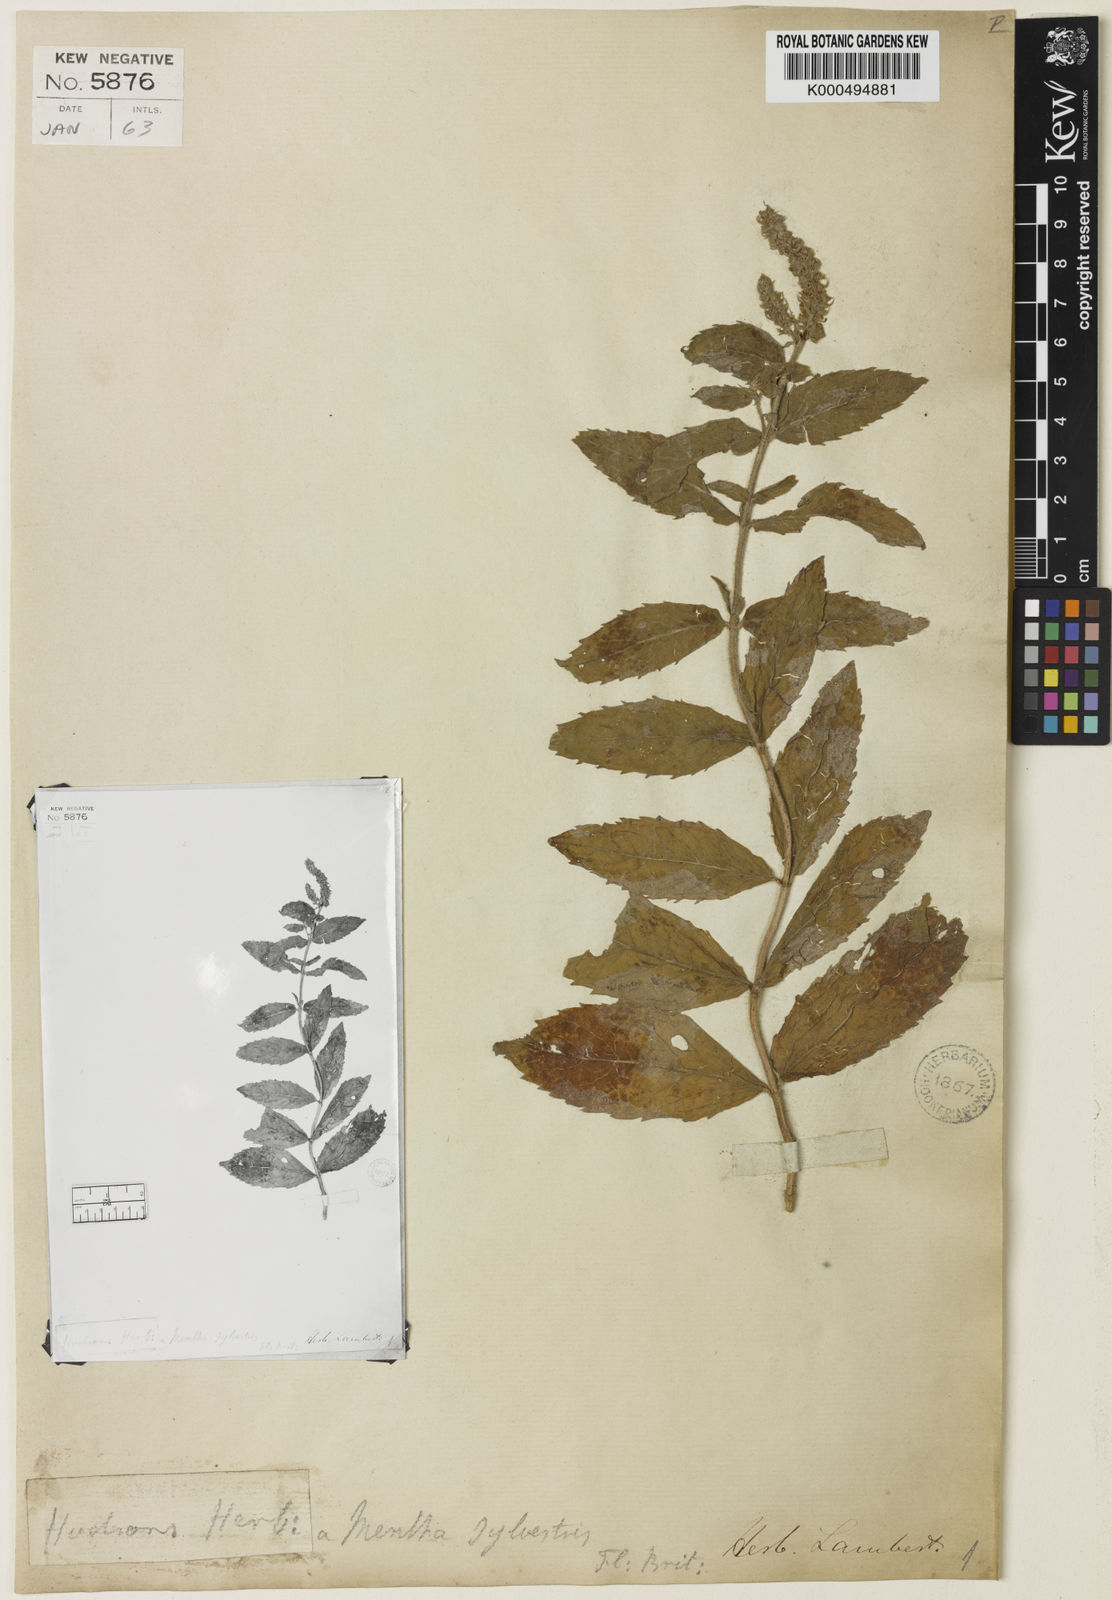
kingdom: Plantae
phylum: Tracheophyta
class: Magnoliopsida
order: Lamiales
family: Lamiaceae
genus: Mentha
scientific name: Mentha villosa
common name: Apple mint
